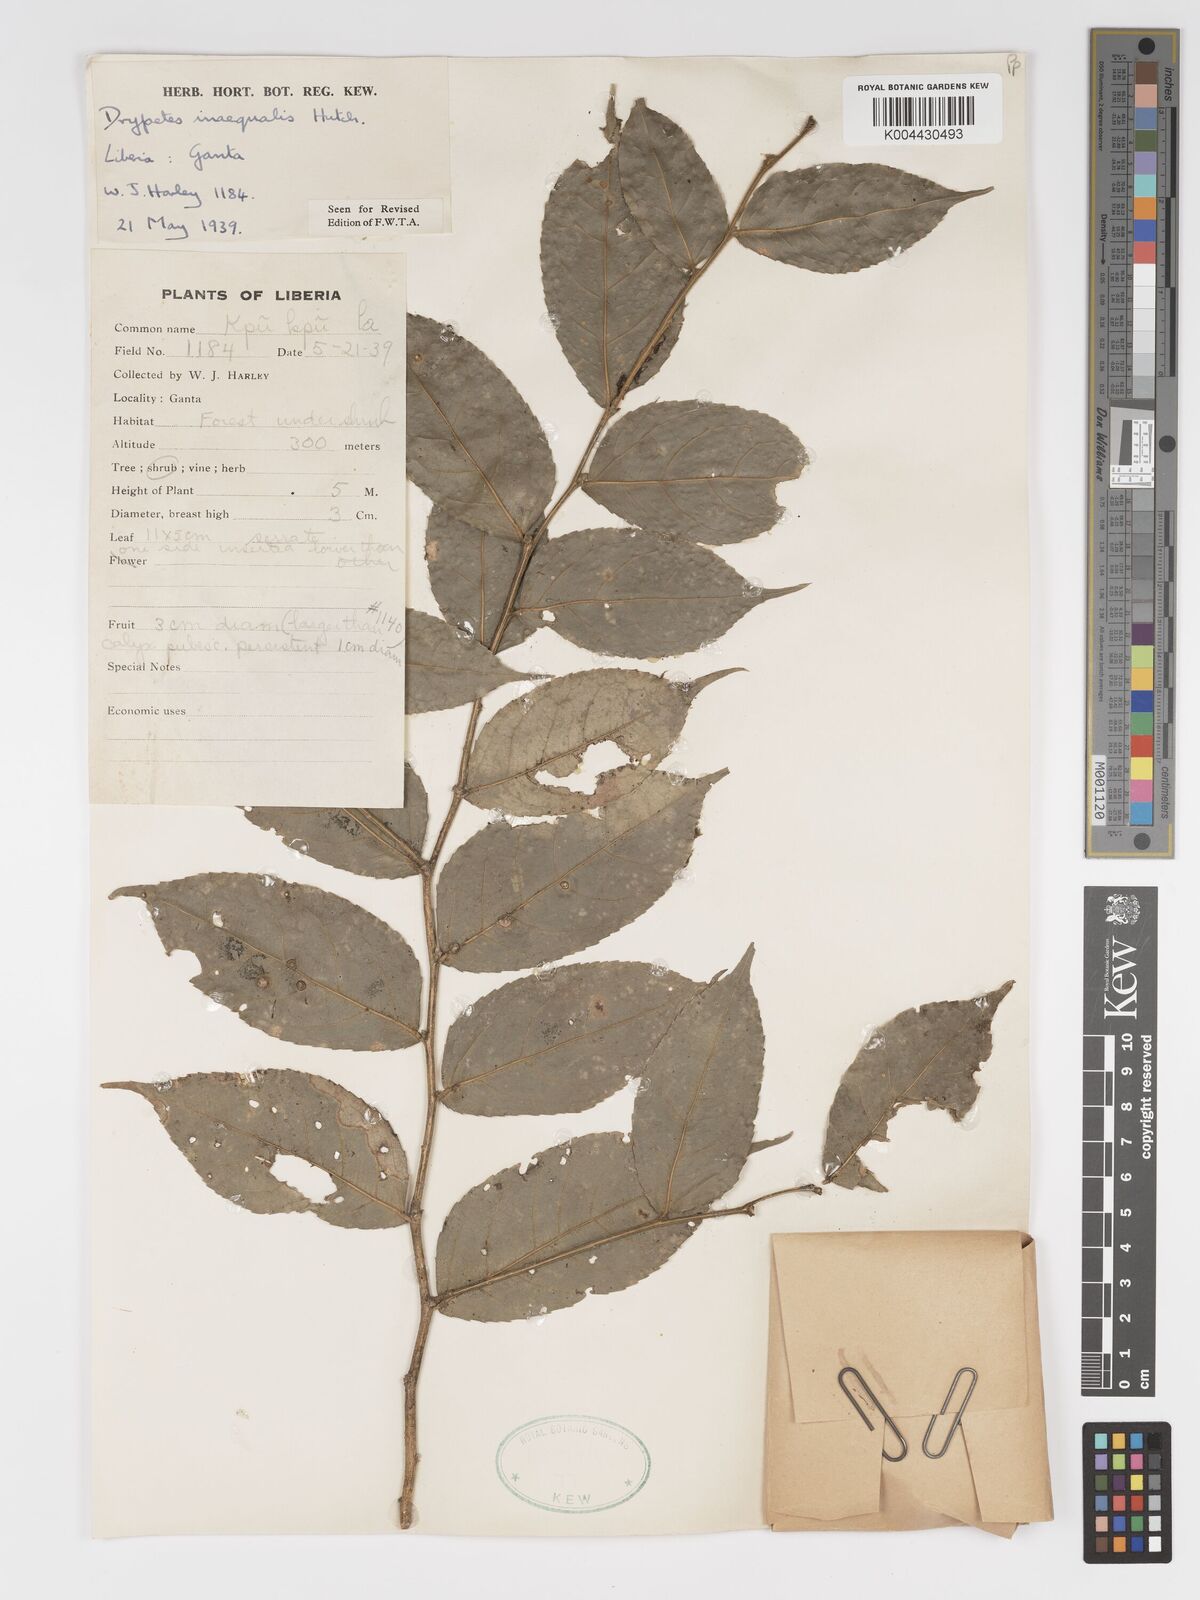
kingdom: Plantae
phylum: Tracheophyta
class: Magnoliopsida
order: Malpighiales
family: Putranjivaceae
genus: Drypetes
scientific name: Drypetes inaequalis
